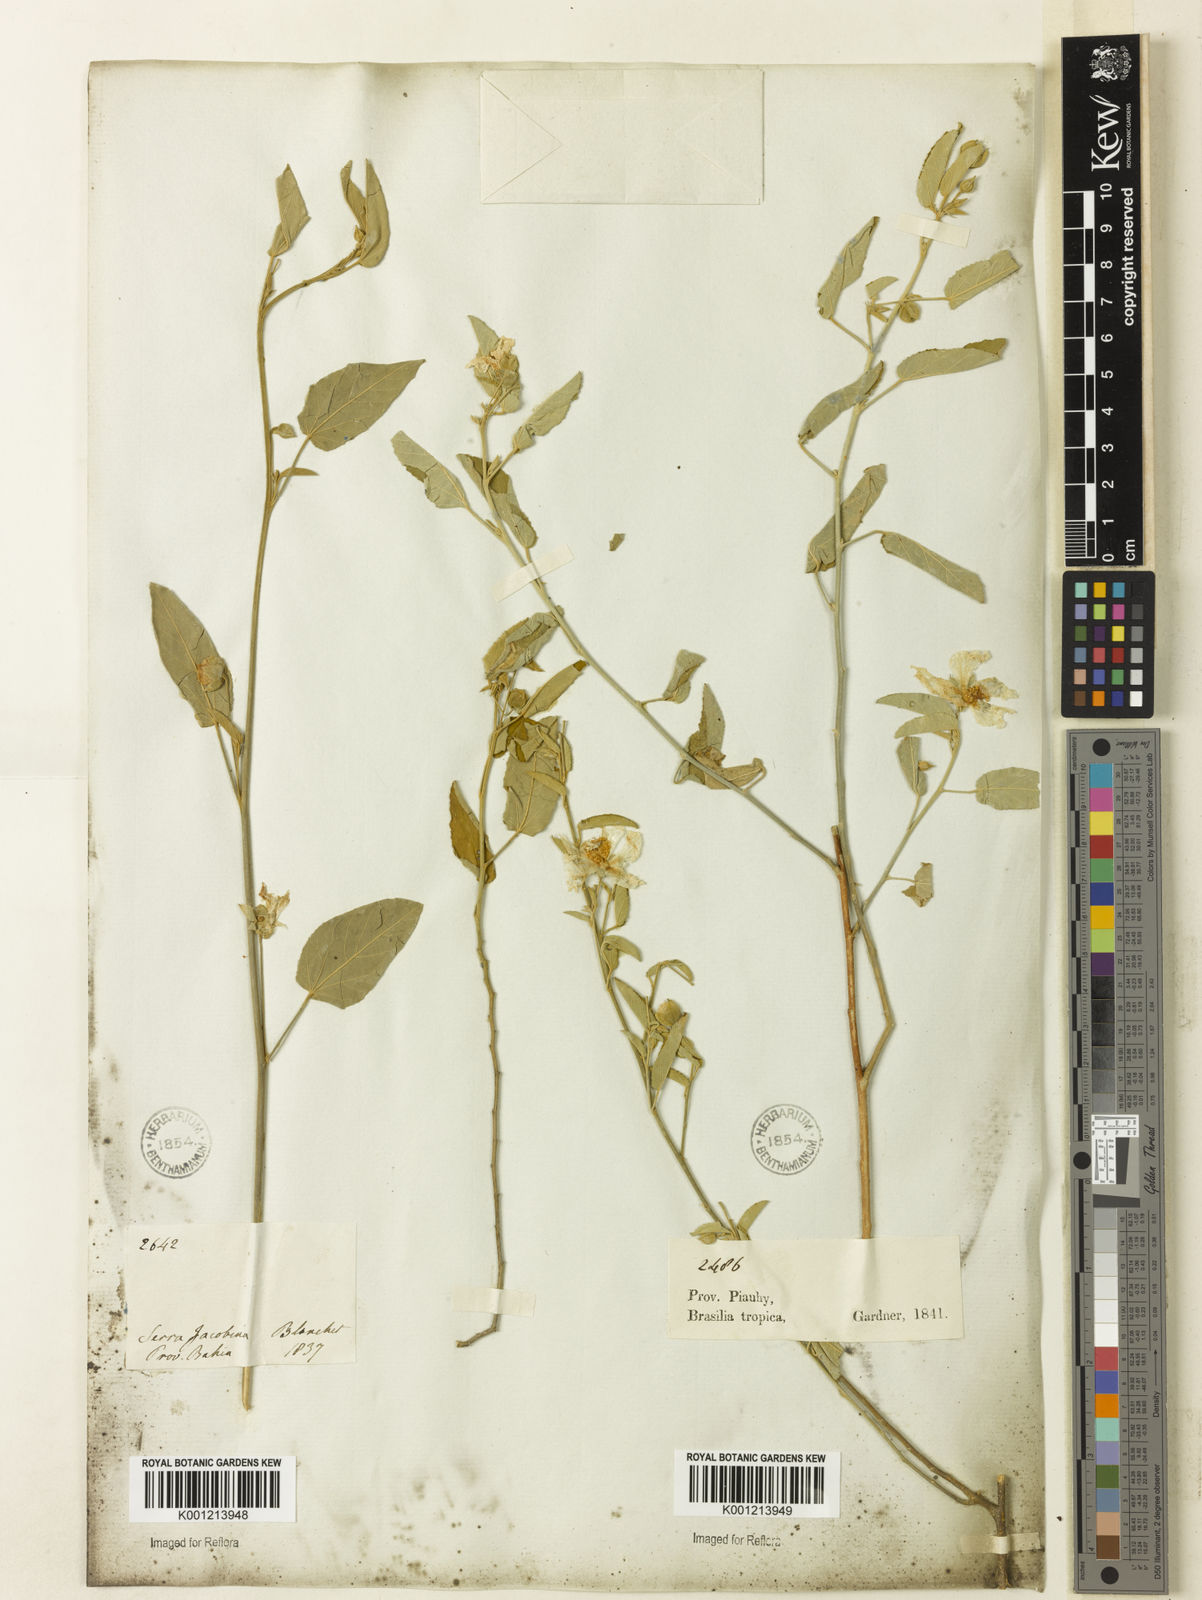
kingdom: Plantae
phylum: Tracheophyta
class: Magnoliopsida
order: Malvales
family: Malvaceae
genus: Gaya
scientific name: Gaya aurea
